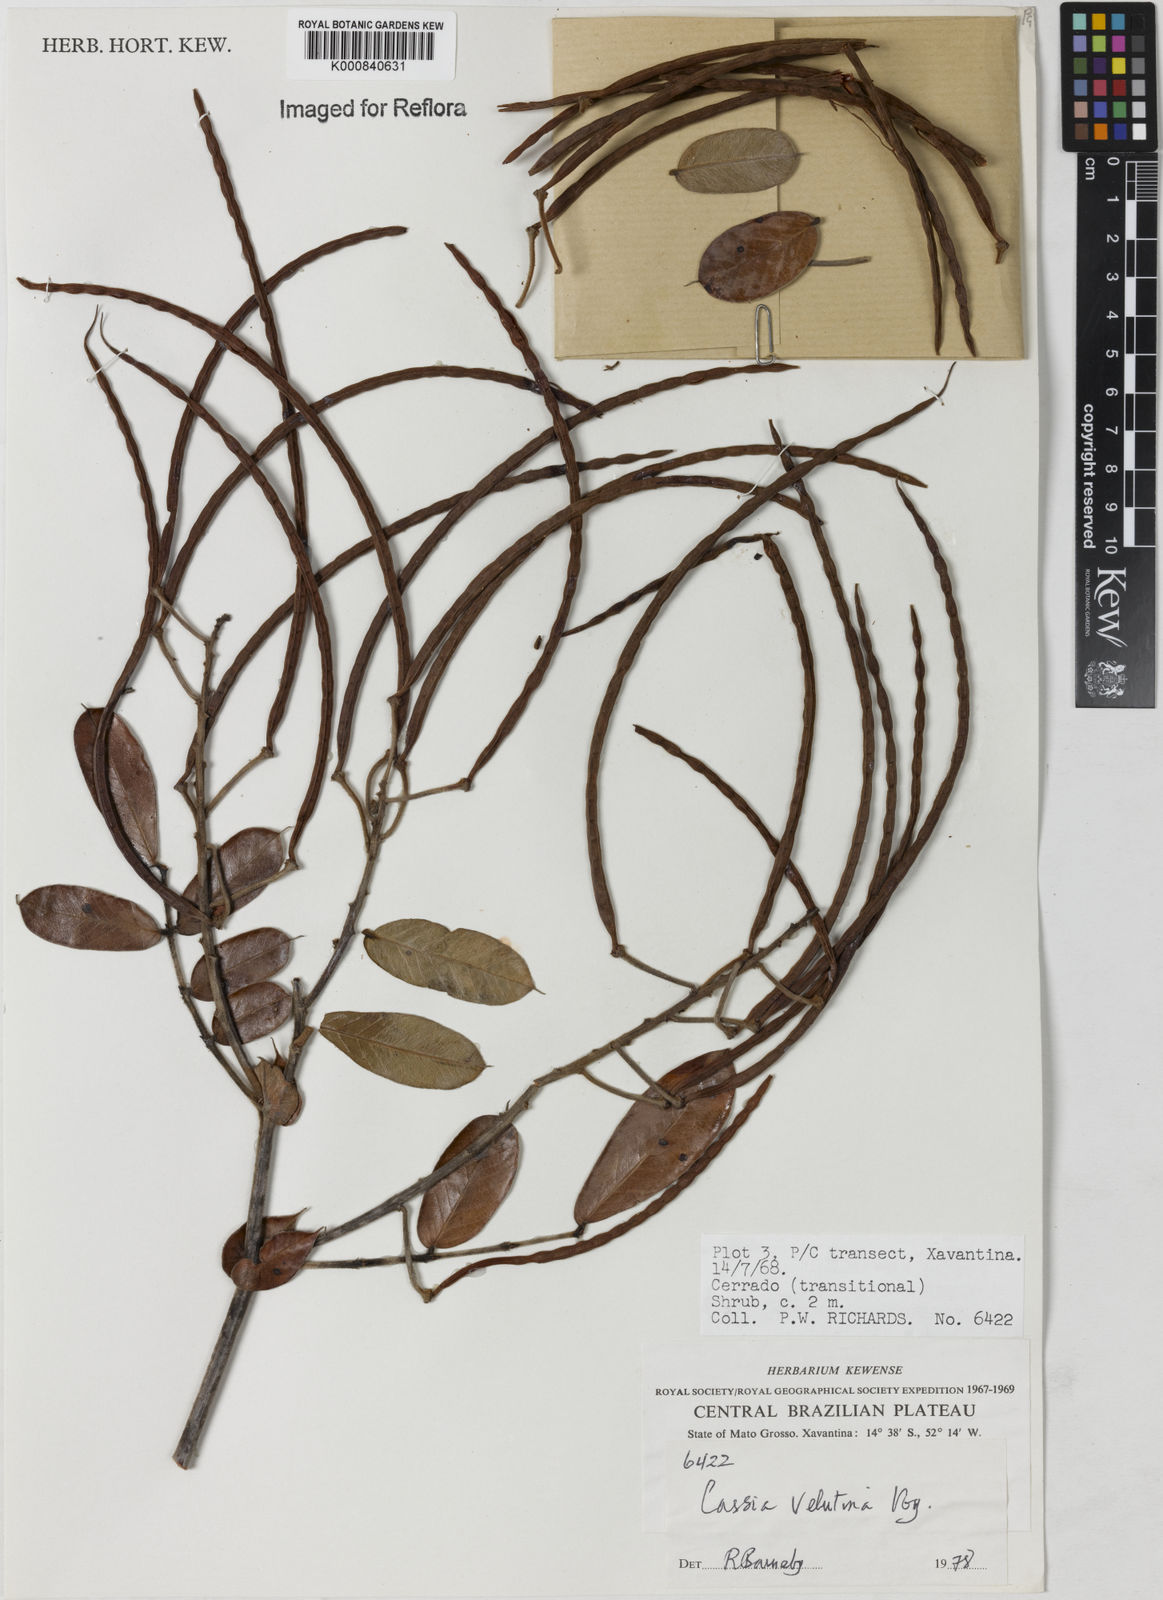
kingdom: Plantae
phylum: Tracheophyta
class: Magnoliopsida
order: Fabales
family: Fabaceae
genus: Senna
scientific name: Senna velutina
